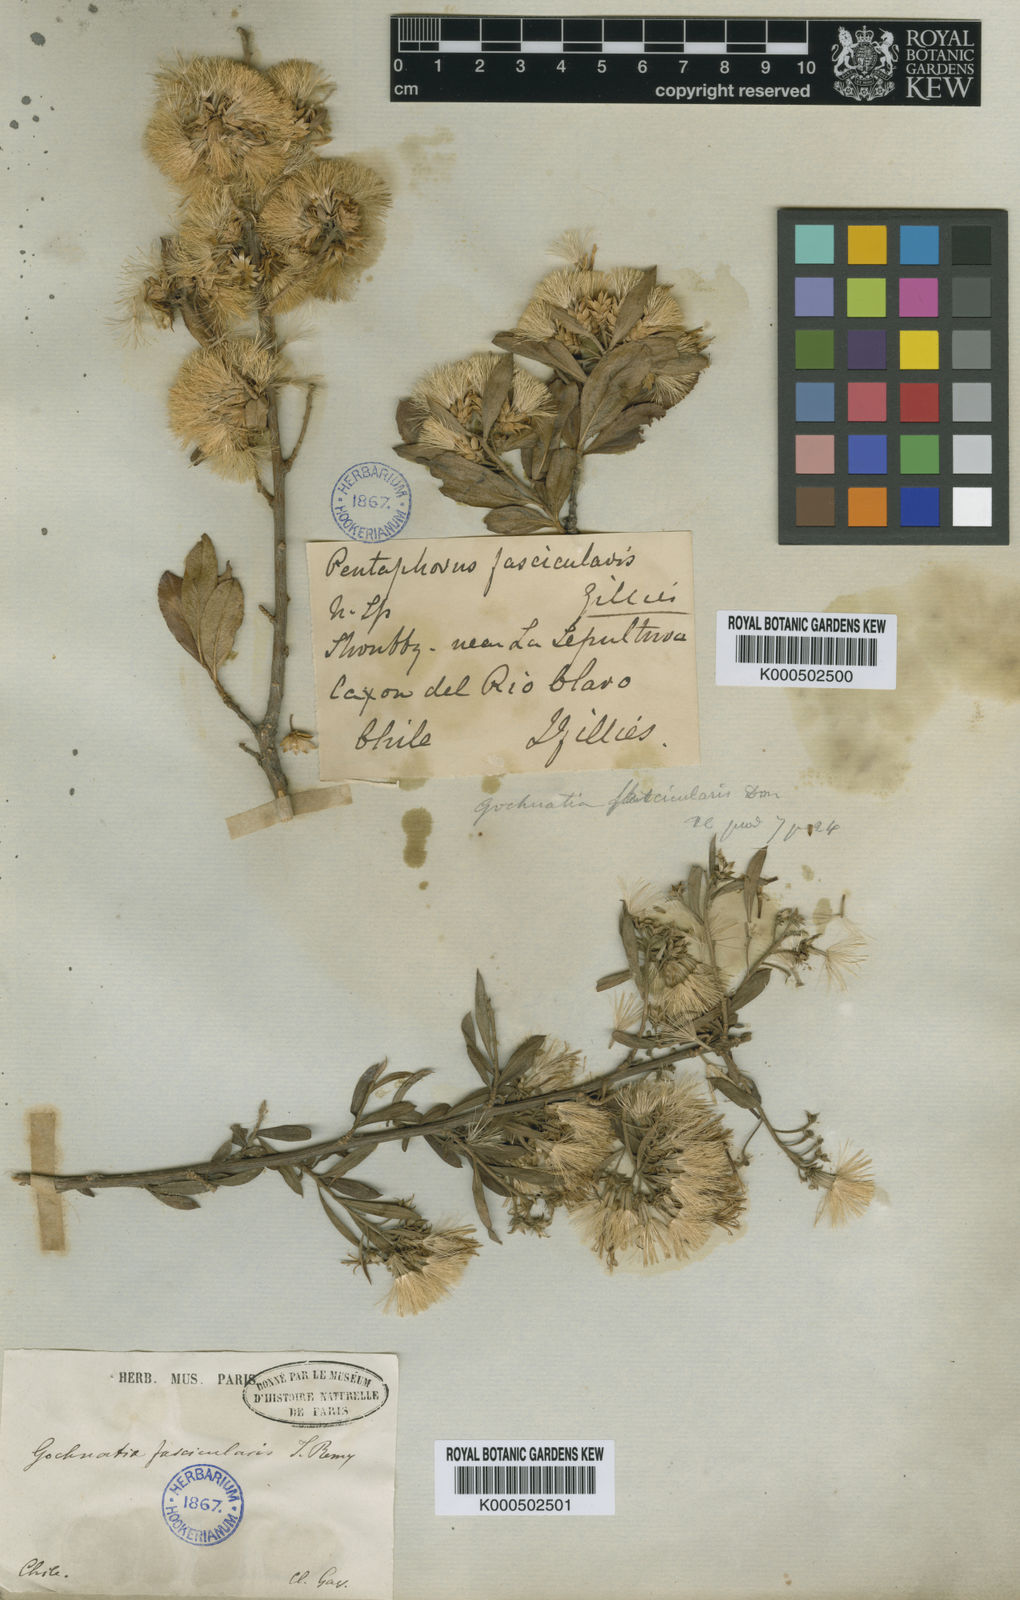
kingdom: Plantae
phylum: Tracheophyta
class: Magnoliopsida
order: Asterales
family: Asteraceae
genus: Gochnatia
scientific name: Gochnatia foliolosa
